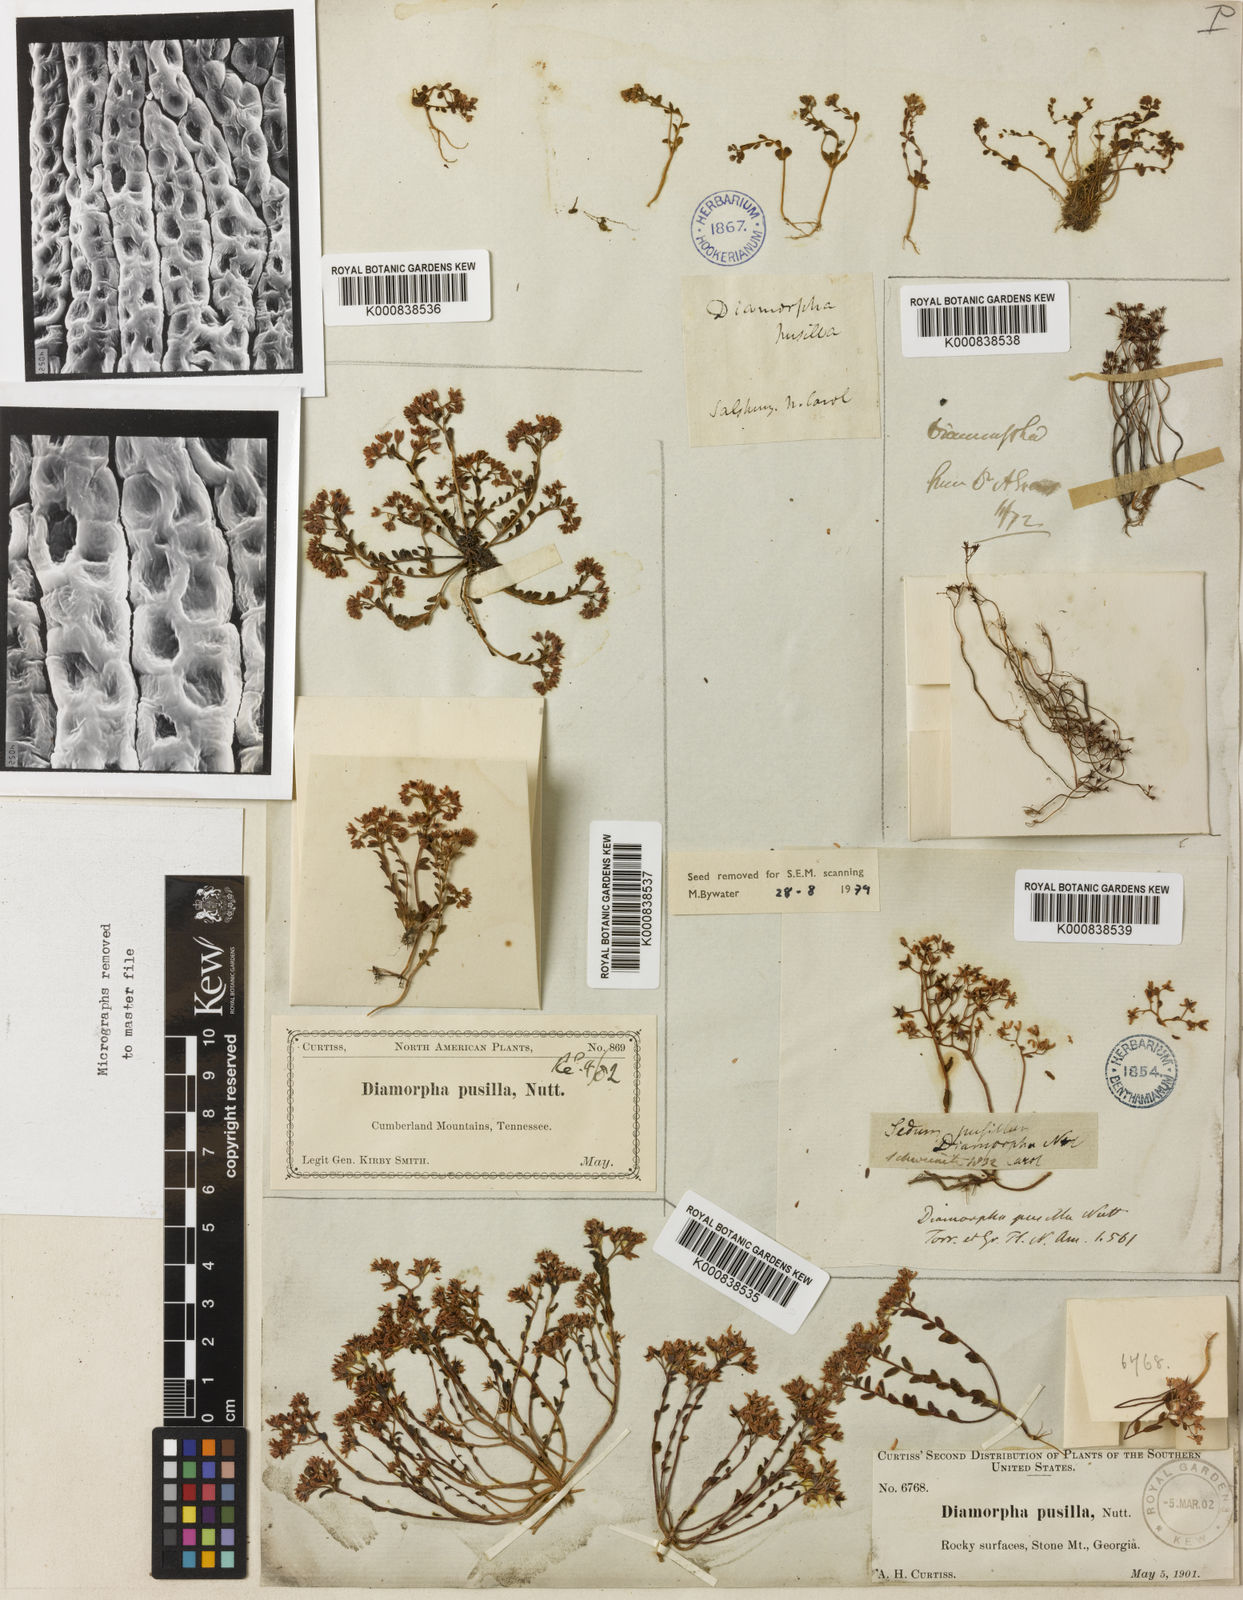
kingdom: Plantae
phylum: Tracheophyta
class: Magnoliopsida
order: Saxifragales
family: Crassulaceae
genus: Sedum
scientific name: Sedum pusillum
